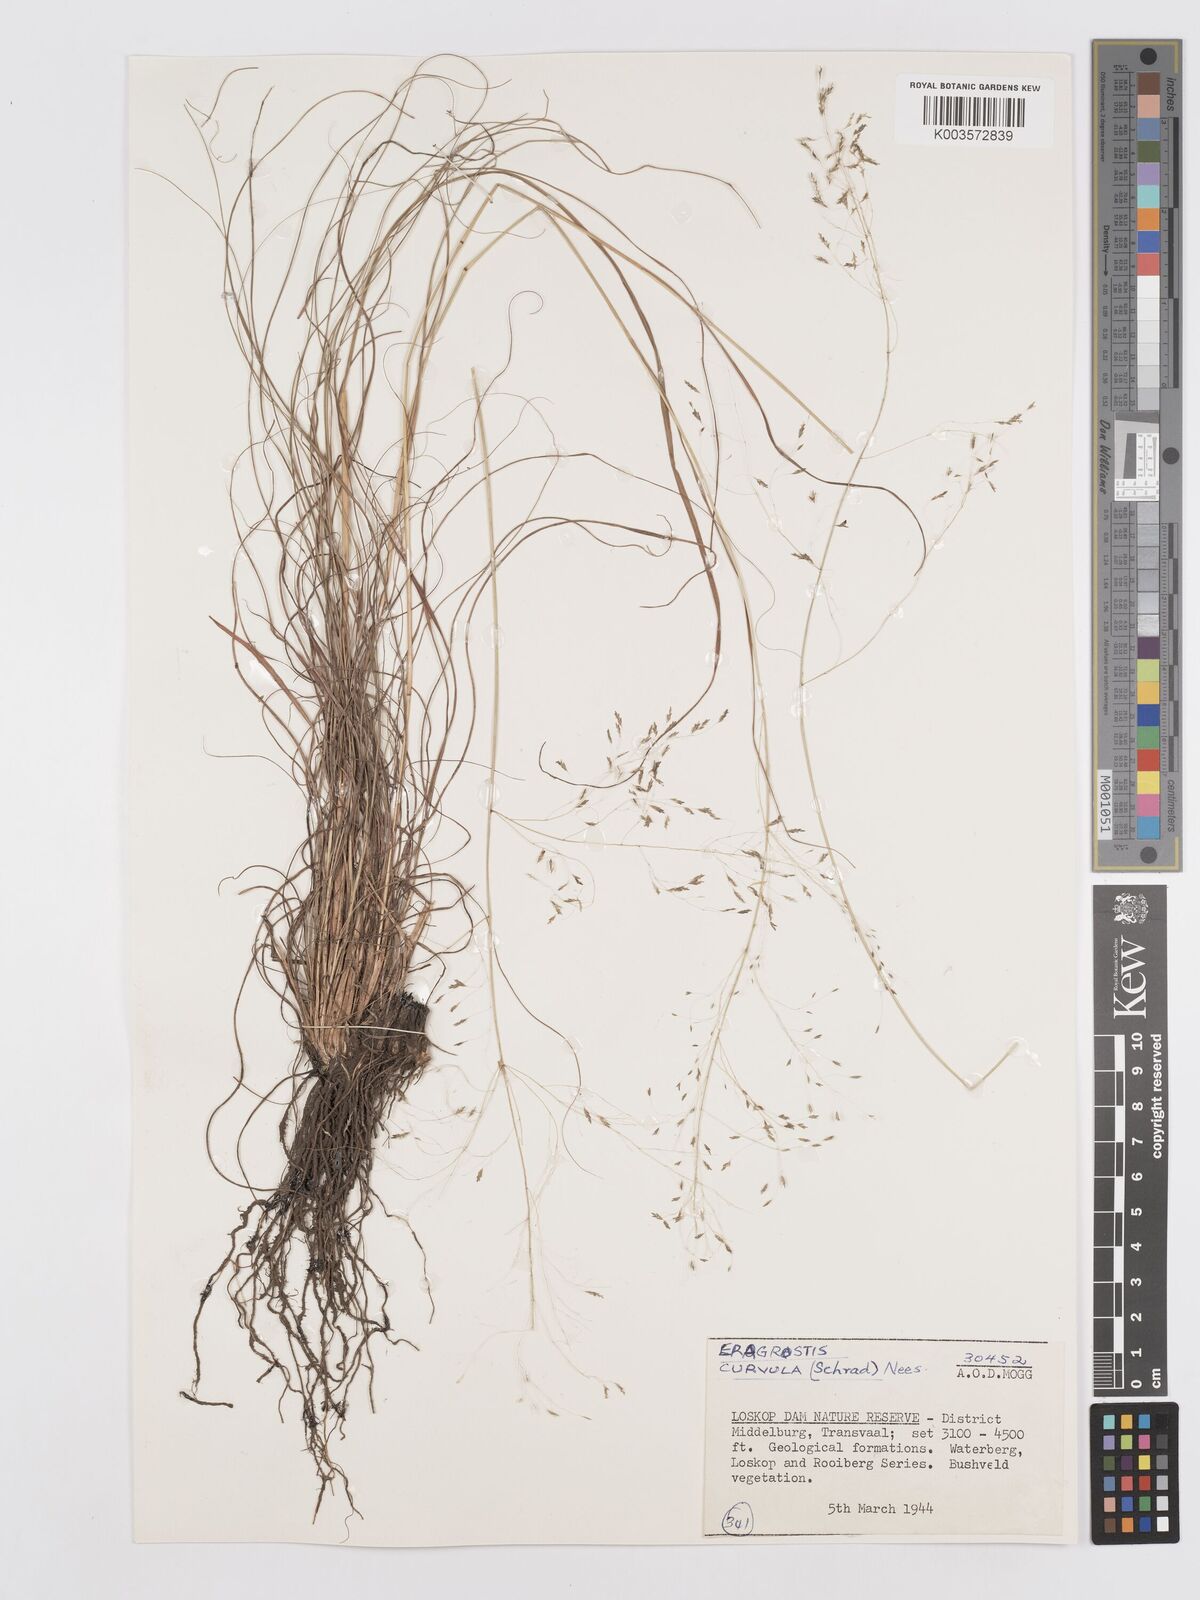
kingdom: Plantae
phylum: Tracheophyta
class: Liliopsida
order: Poales
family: Poaceae
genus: Eragrostis
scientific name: Eragrostis curvula
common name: African love-grass
